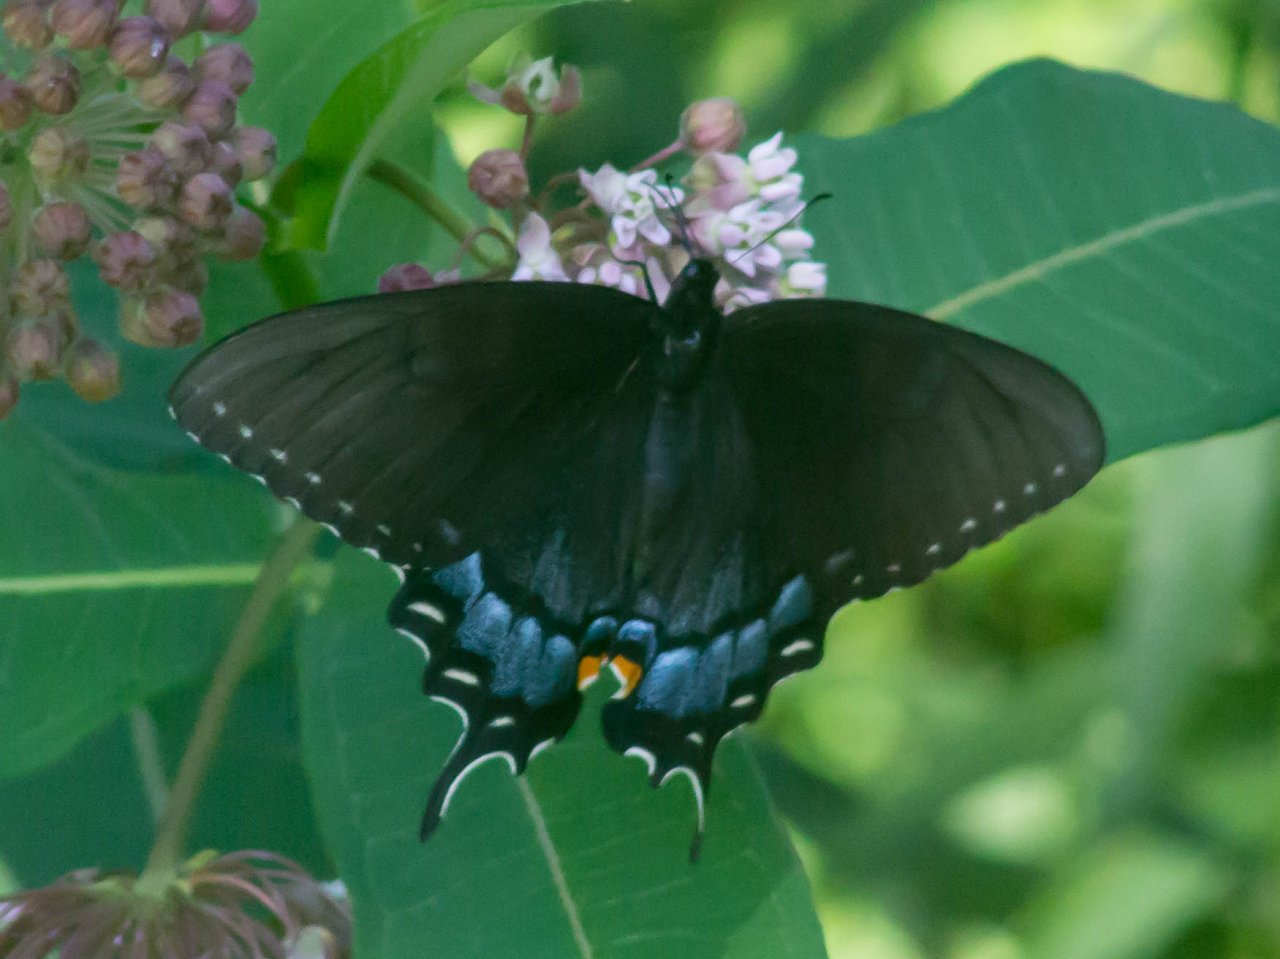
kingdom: Animalia
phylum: Arthropoda
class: Insecta
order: Lepidoptera
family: Papilionidae
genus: Pterourus
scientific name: Pterourus glaucus
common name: Eastern Tiger Swallowtail
